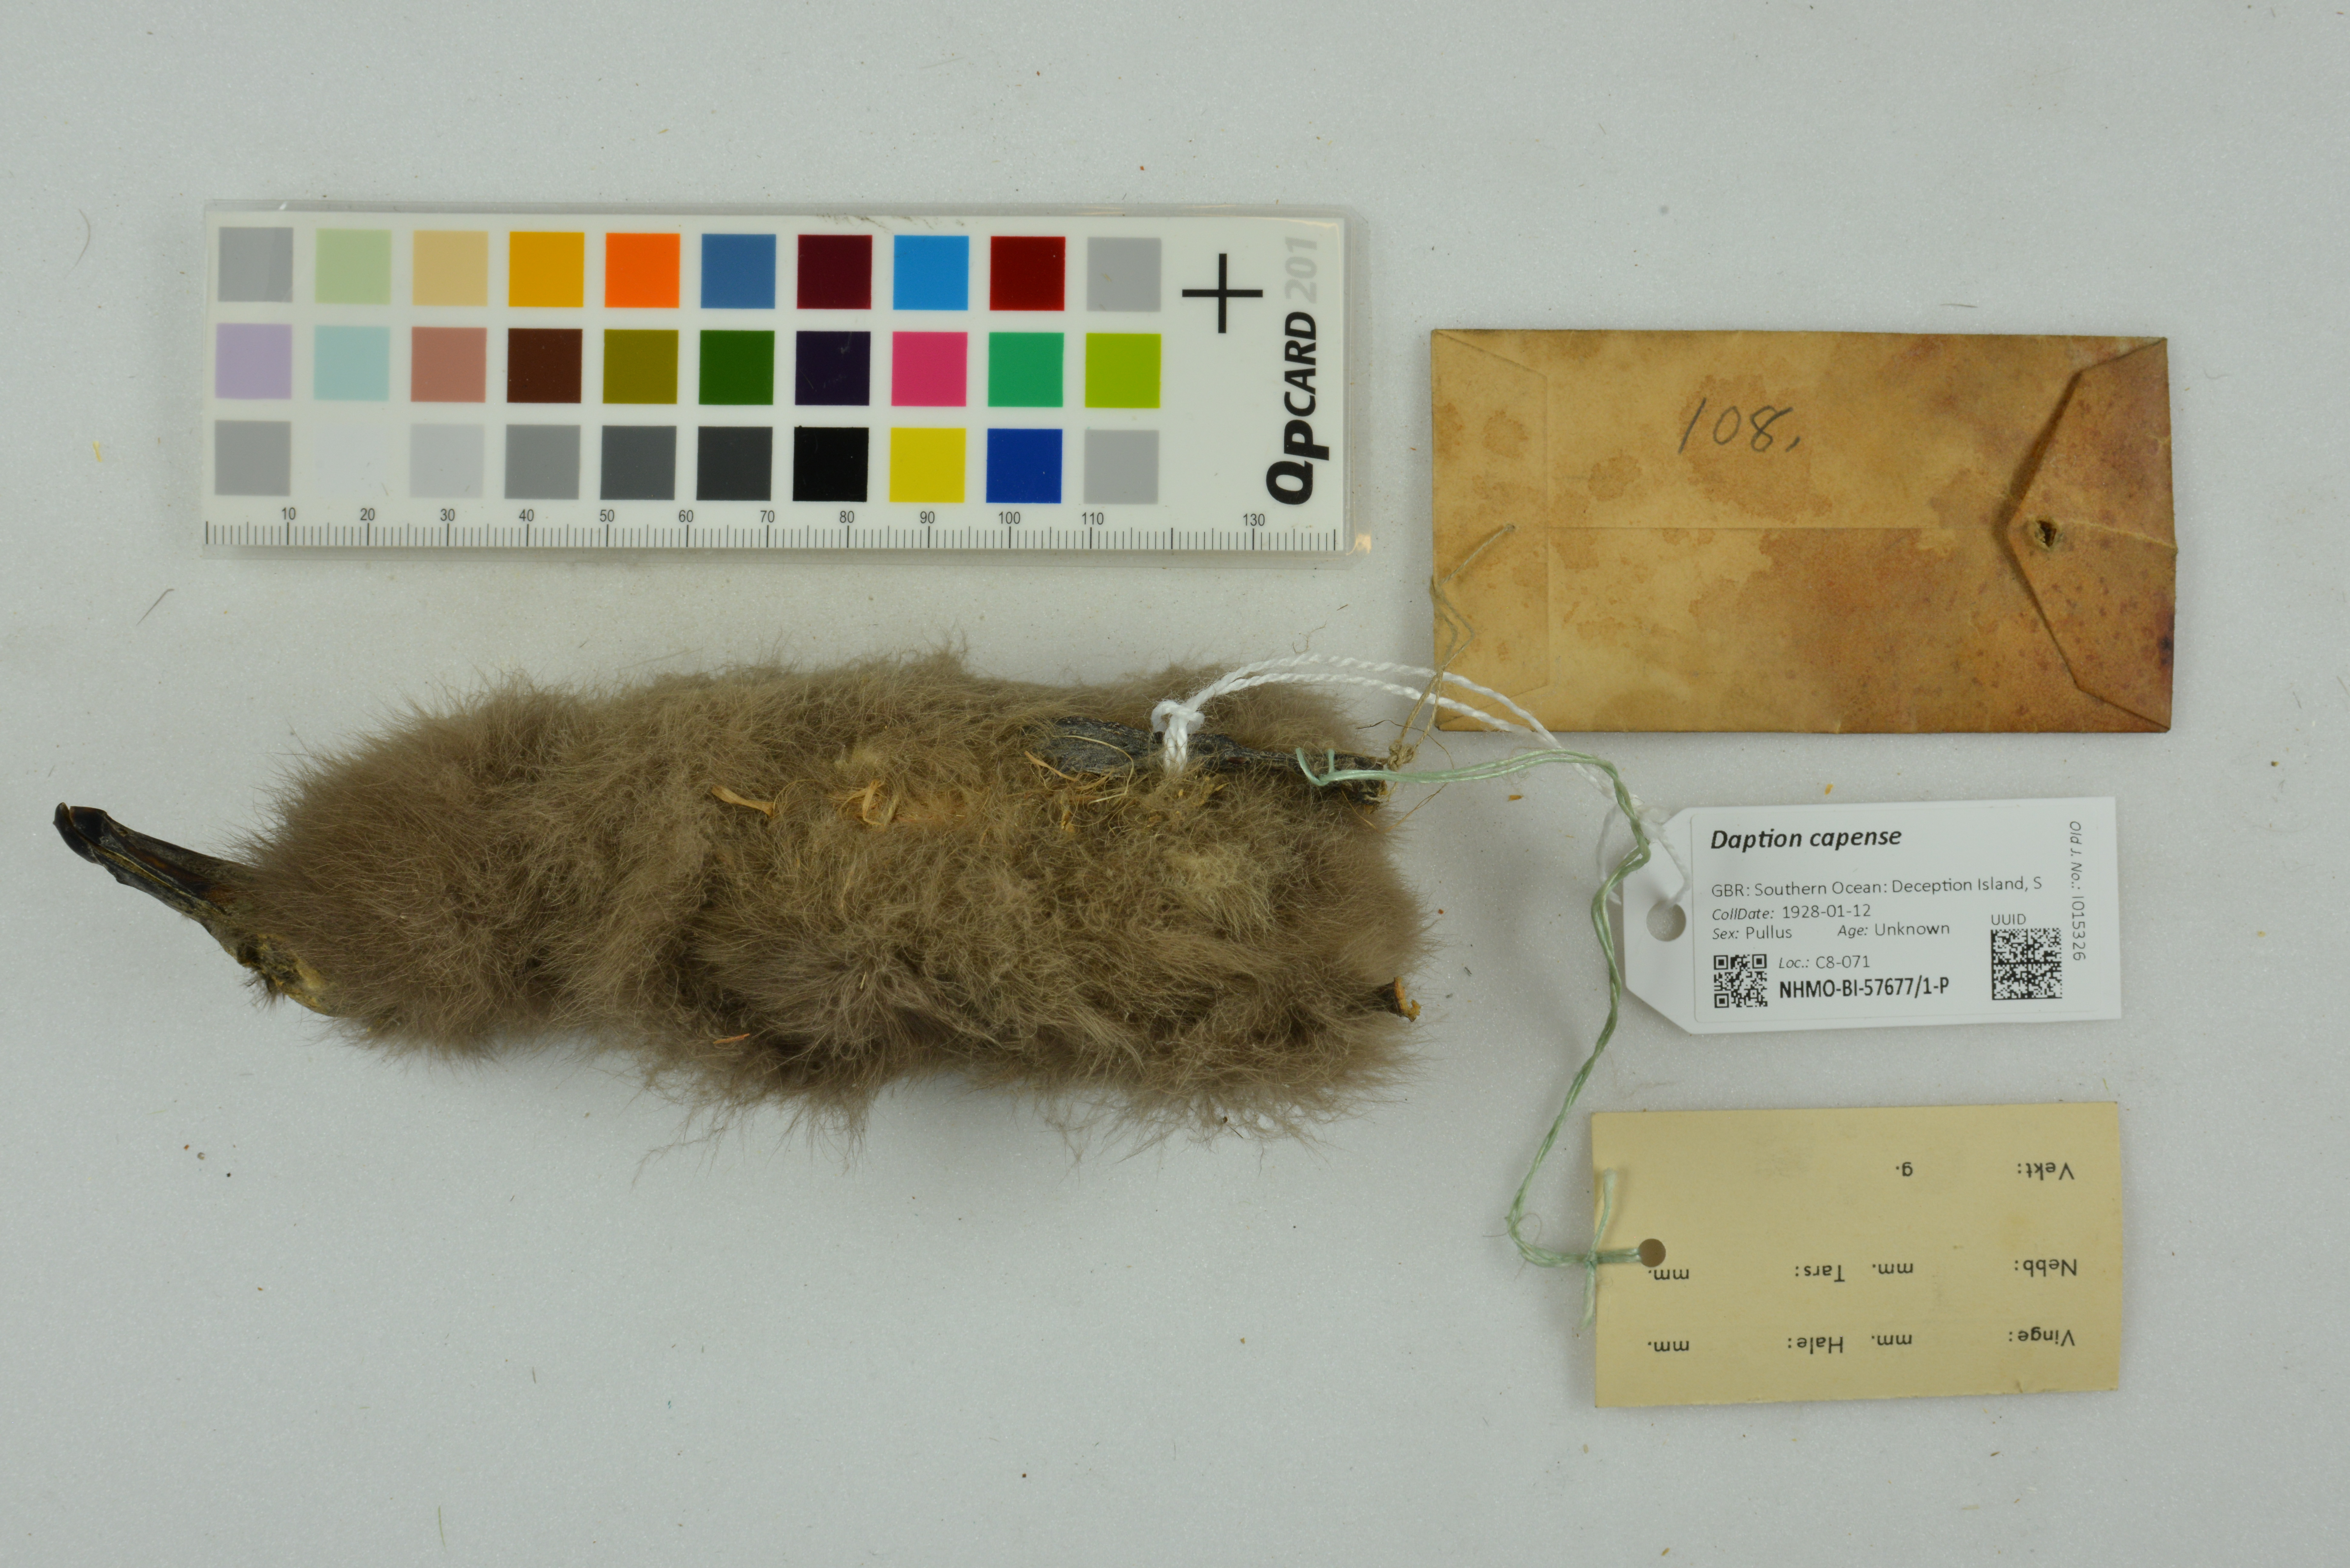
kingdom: Animalia
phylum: Chordata
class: Aves
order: Procellariiformes
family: Procellariidae
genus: Daption
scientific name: Daption capense
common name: Cape petrel
